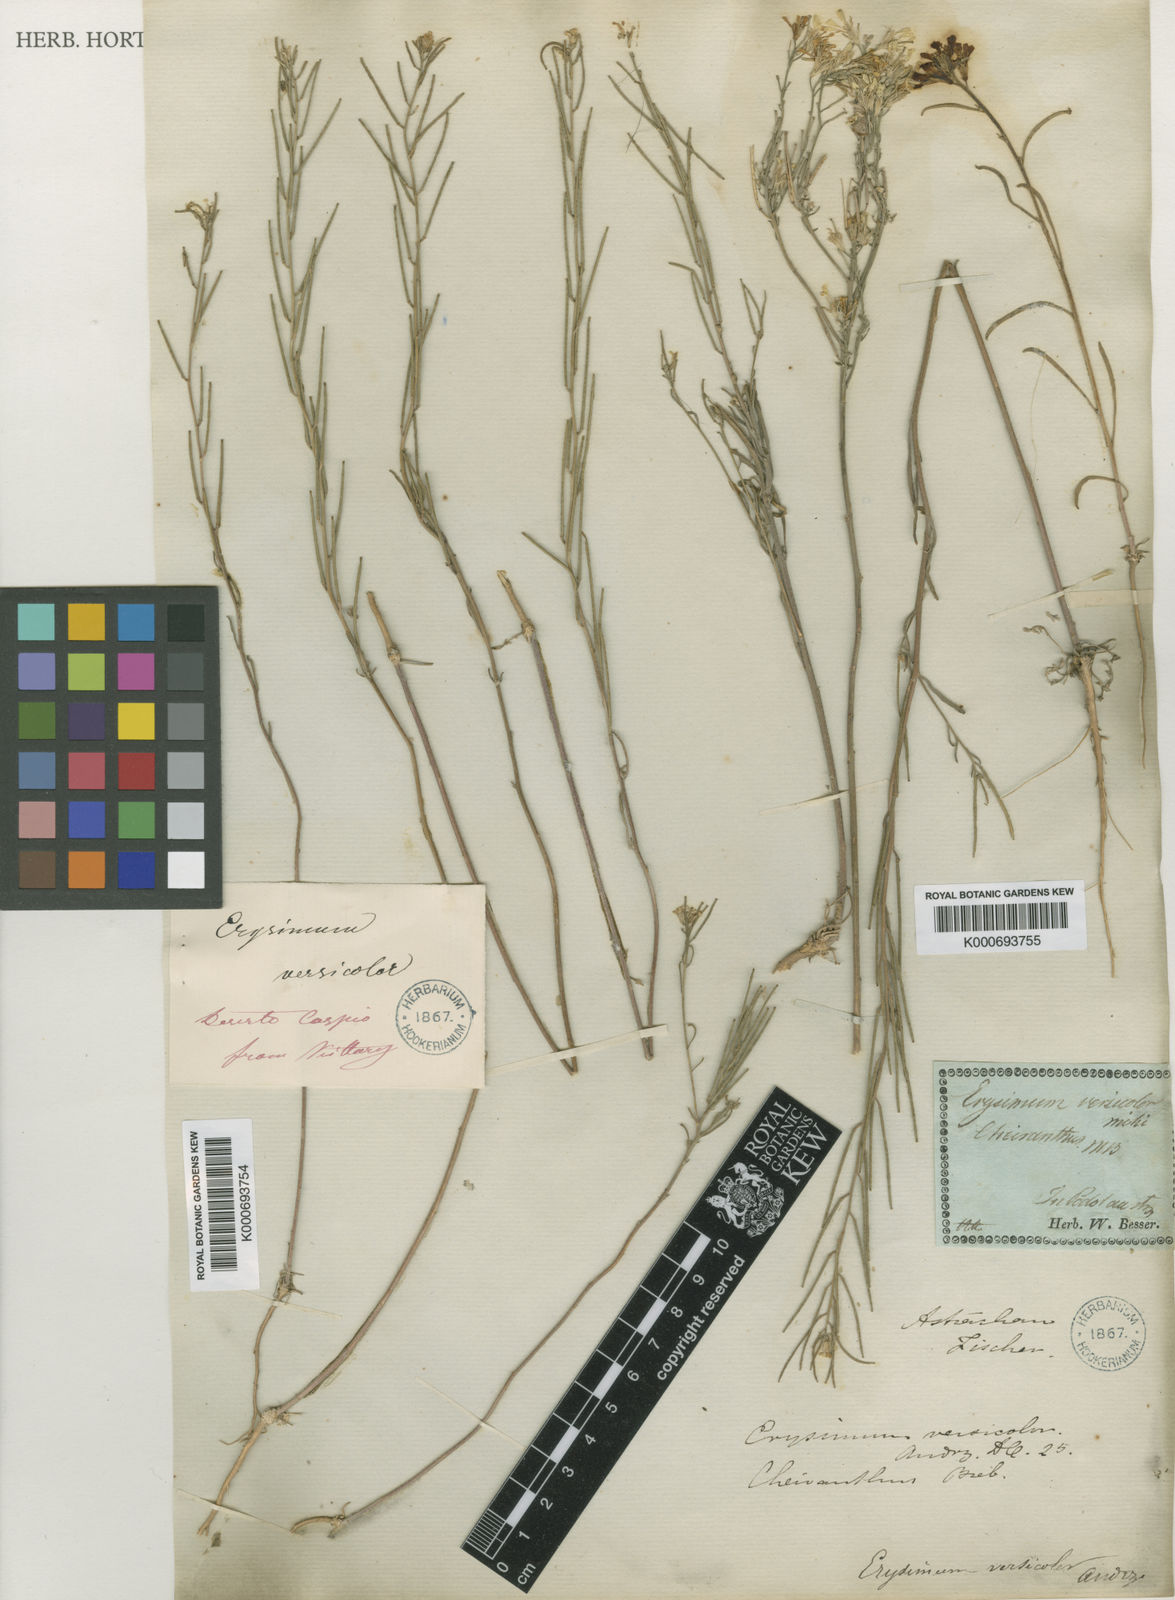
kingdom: Plantae
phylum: Tracheophyta
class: Magnoliopsida
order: Brassicales
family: Brassicaceae
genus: Erysimum
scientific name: Erysimum leucanthemum
